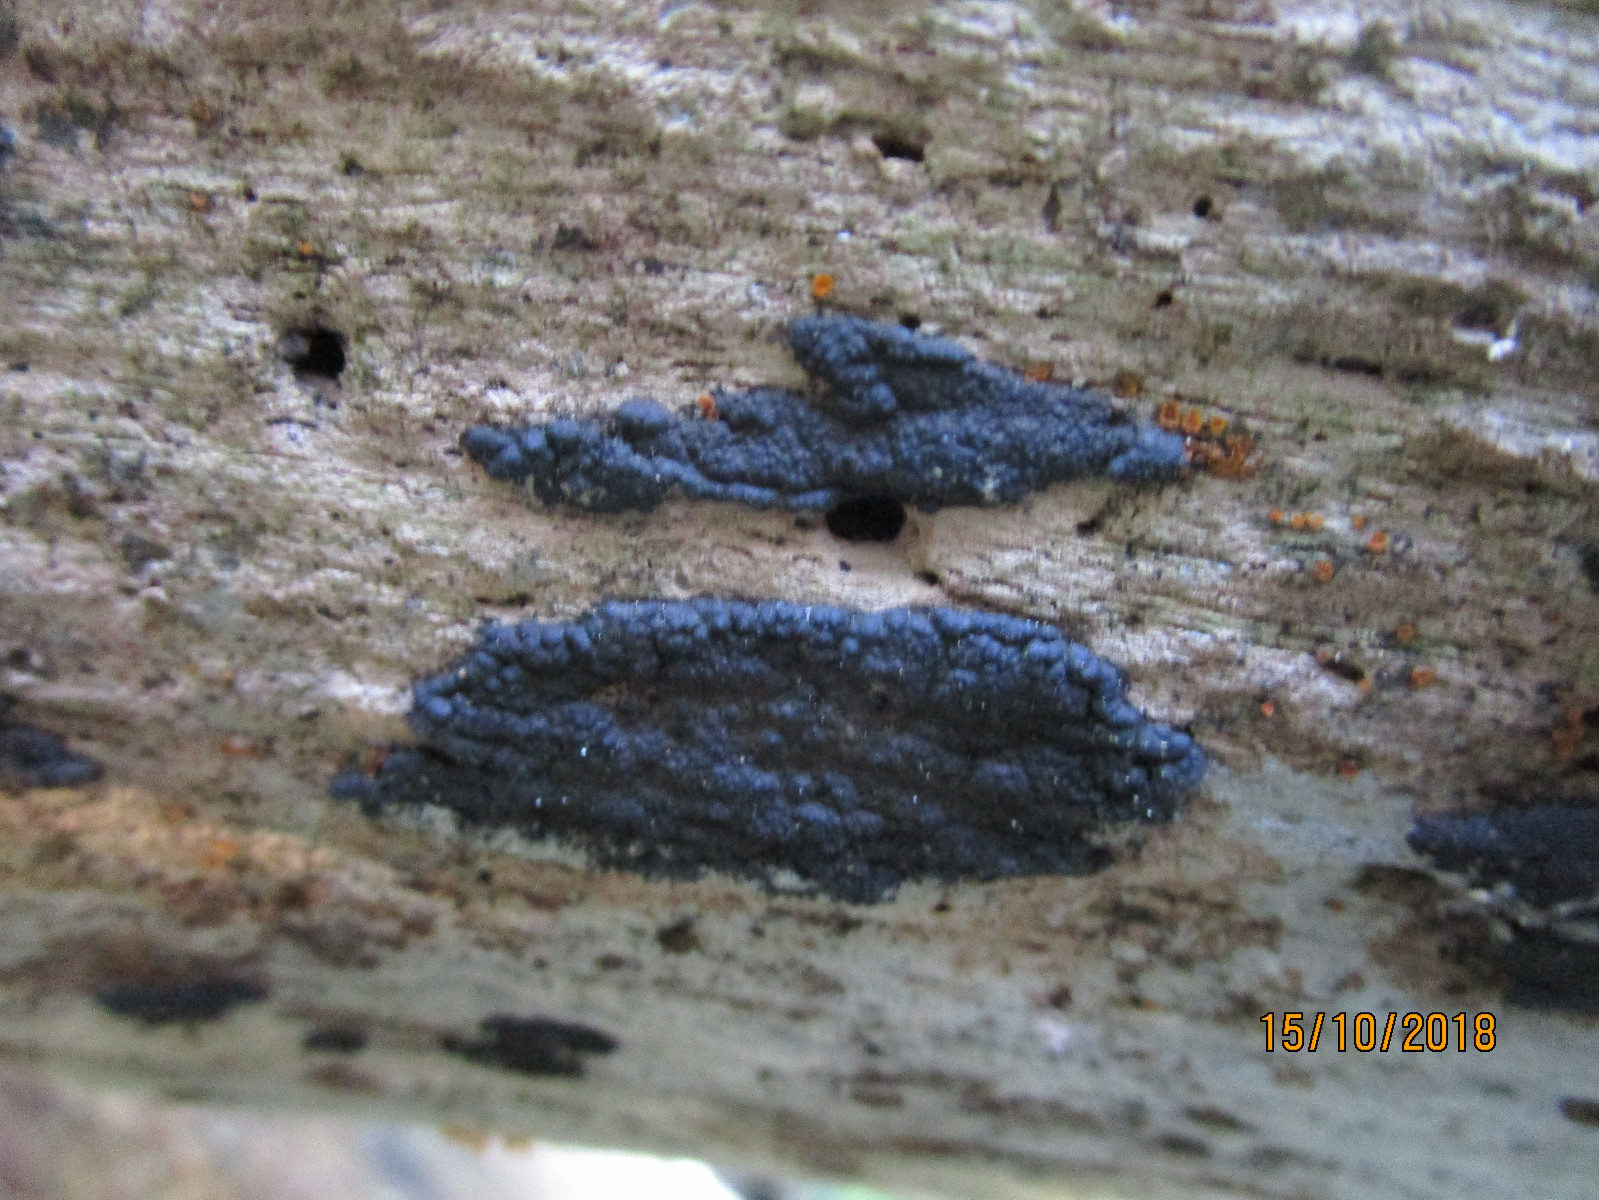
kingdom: Fungi
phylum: Ascomycota
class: Sordariomycetes
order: Xylariales
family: Xylariaceae
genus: Nemania
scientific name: Nemania
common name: kuldyne
